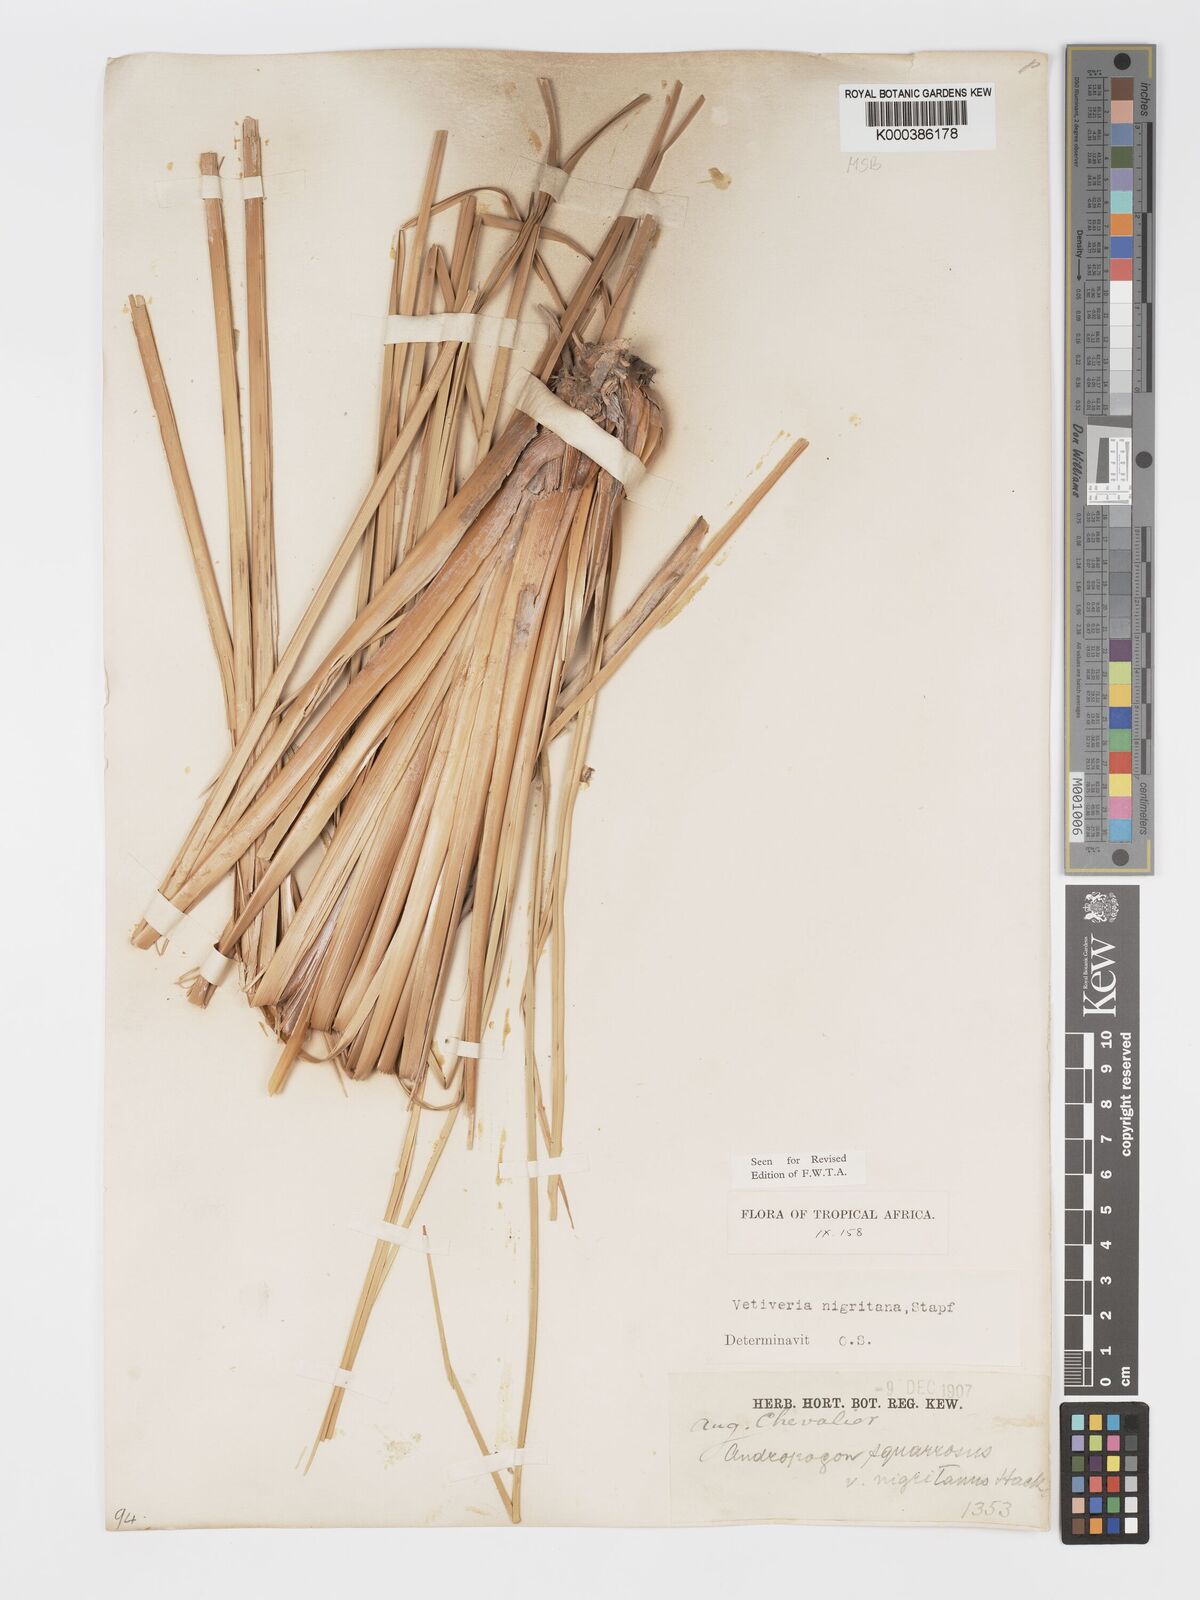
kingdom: Plantae
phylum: Tracheophyta
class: Liliopsida
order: Poales
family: Poaceae
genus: Chrysopogon
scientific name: Chrysopogon nigritanus
